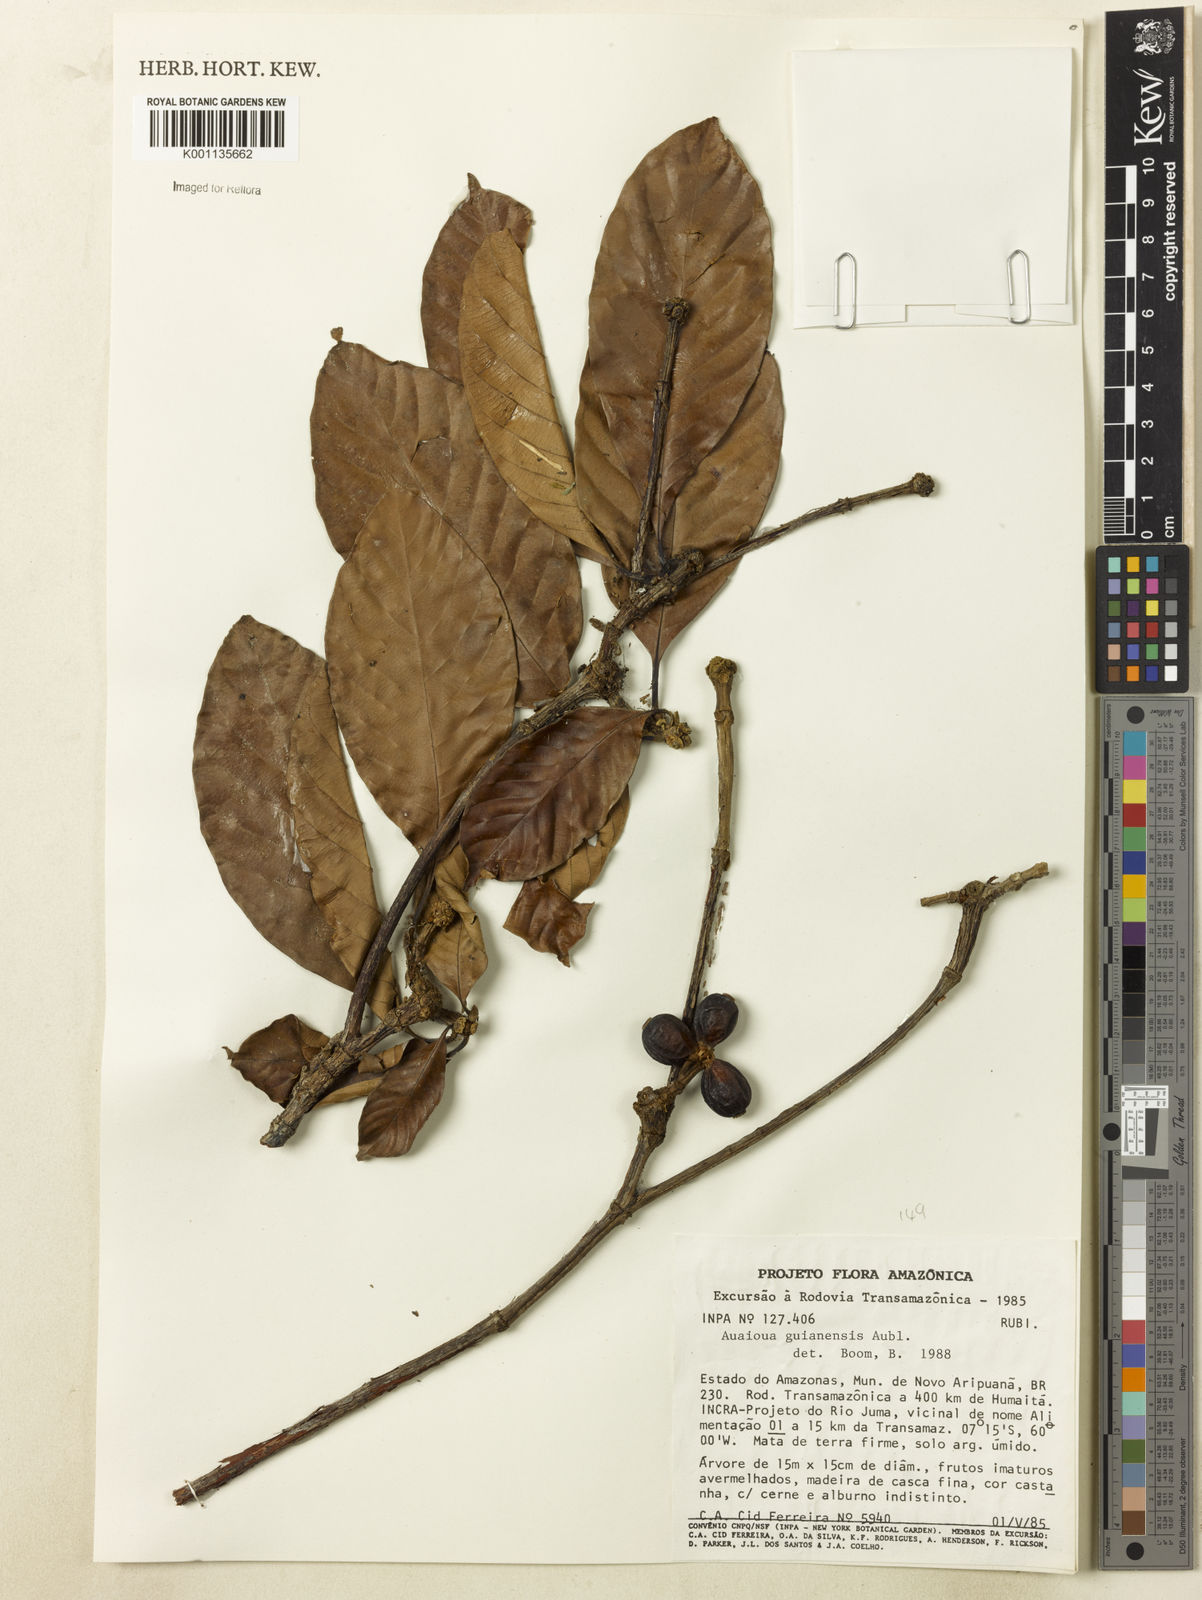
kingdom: Plantae
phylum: Tracheophyta
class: Magnoliopsida
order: Gentianales
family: Rubiaceae
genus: Amaioua
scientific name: Amaioua guianensis
